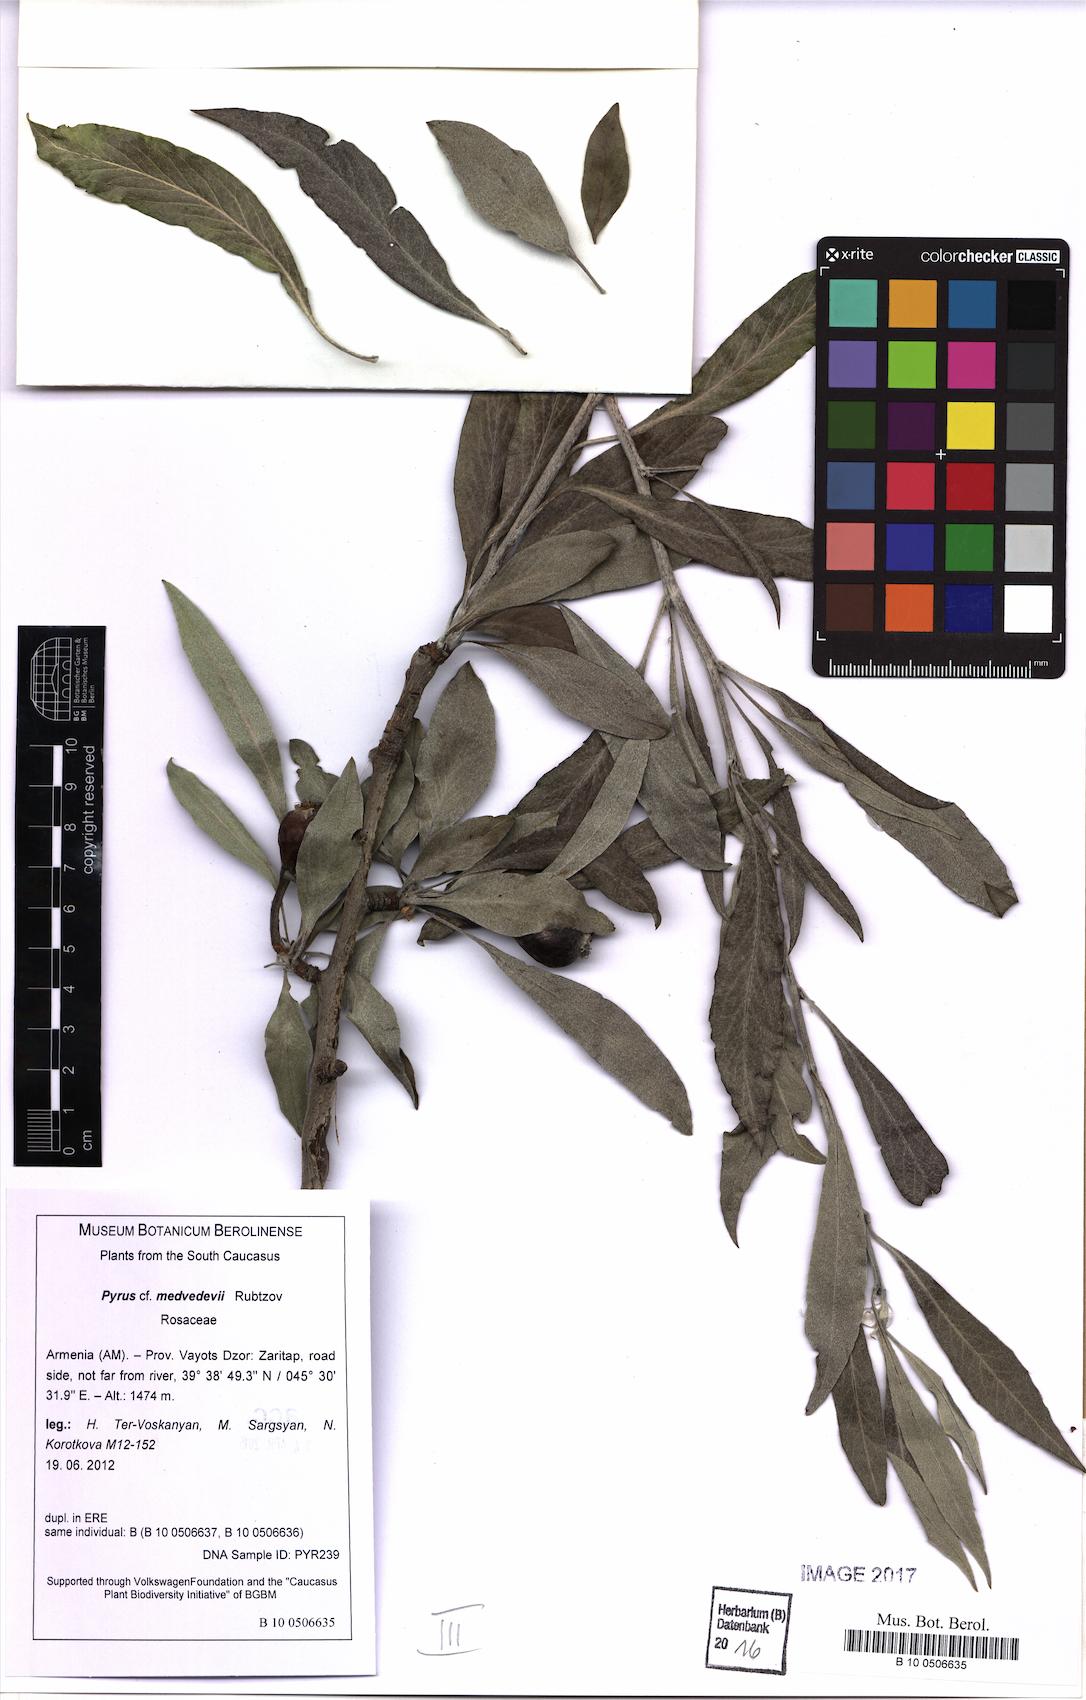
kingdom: Plantae
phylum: Tracheophyta
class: Magnoliopsida
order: Rosales
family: Rosaceae
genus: Pyrus
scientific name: Pyrus medvedevii
